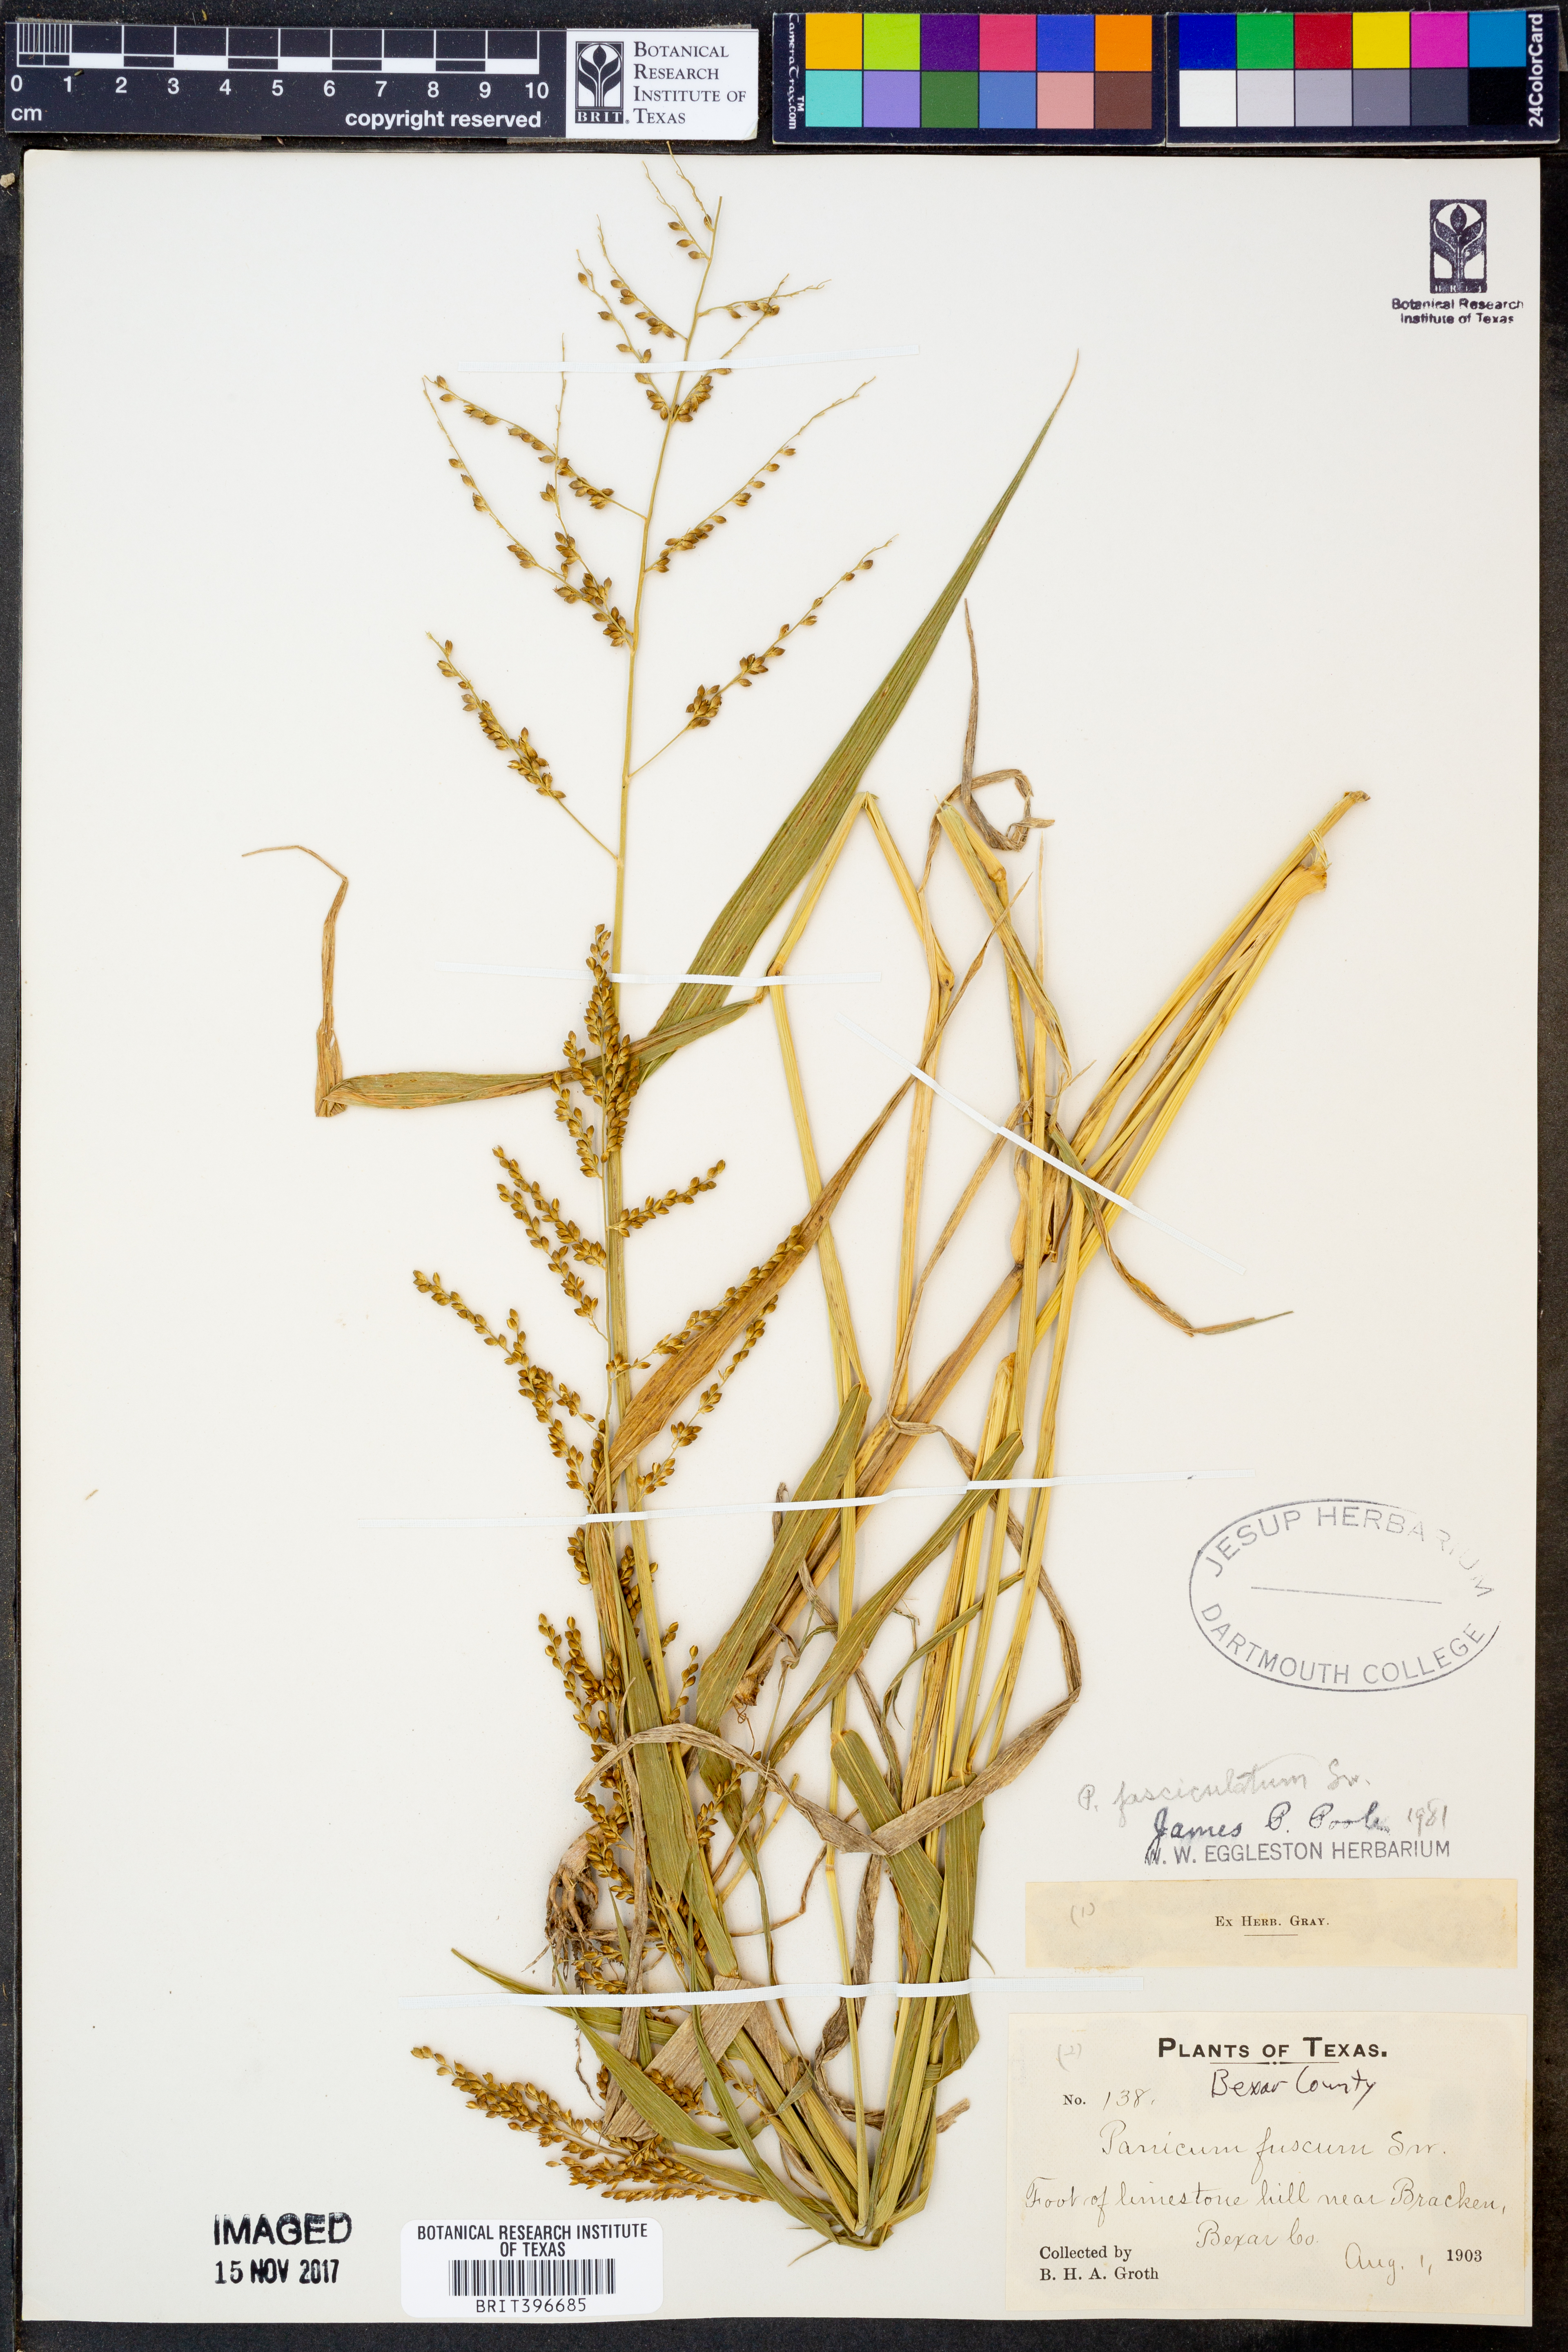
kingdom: Plantae
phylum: Tracheophyta
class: Liliopsida
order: Poales
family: Poaceae
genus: Urochloa
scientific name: Urochloa fusca
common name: Browntop signal grass
